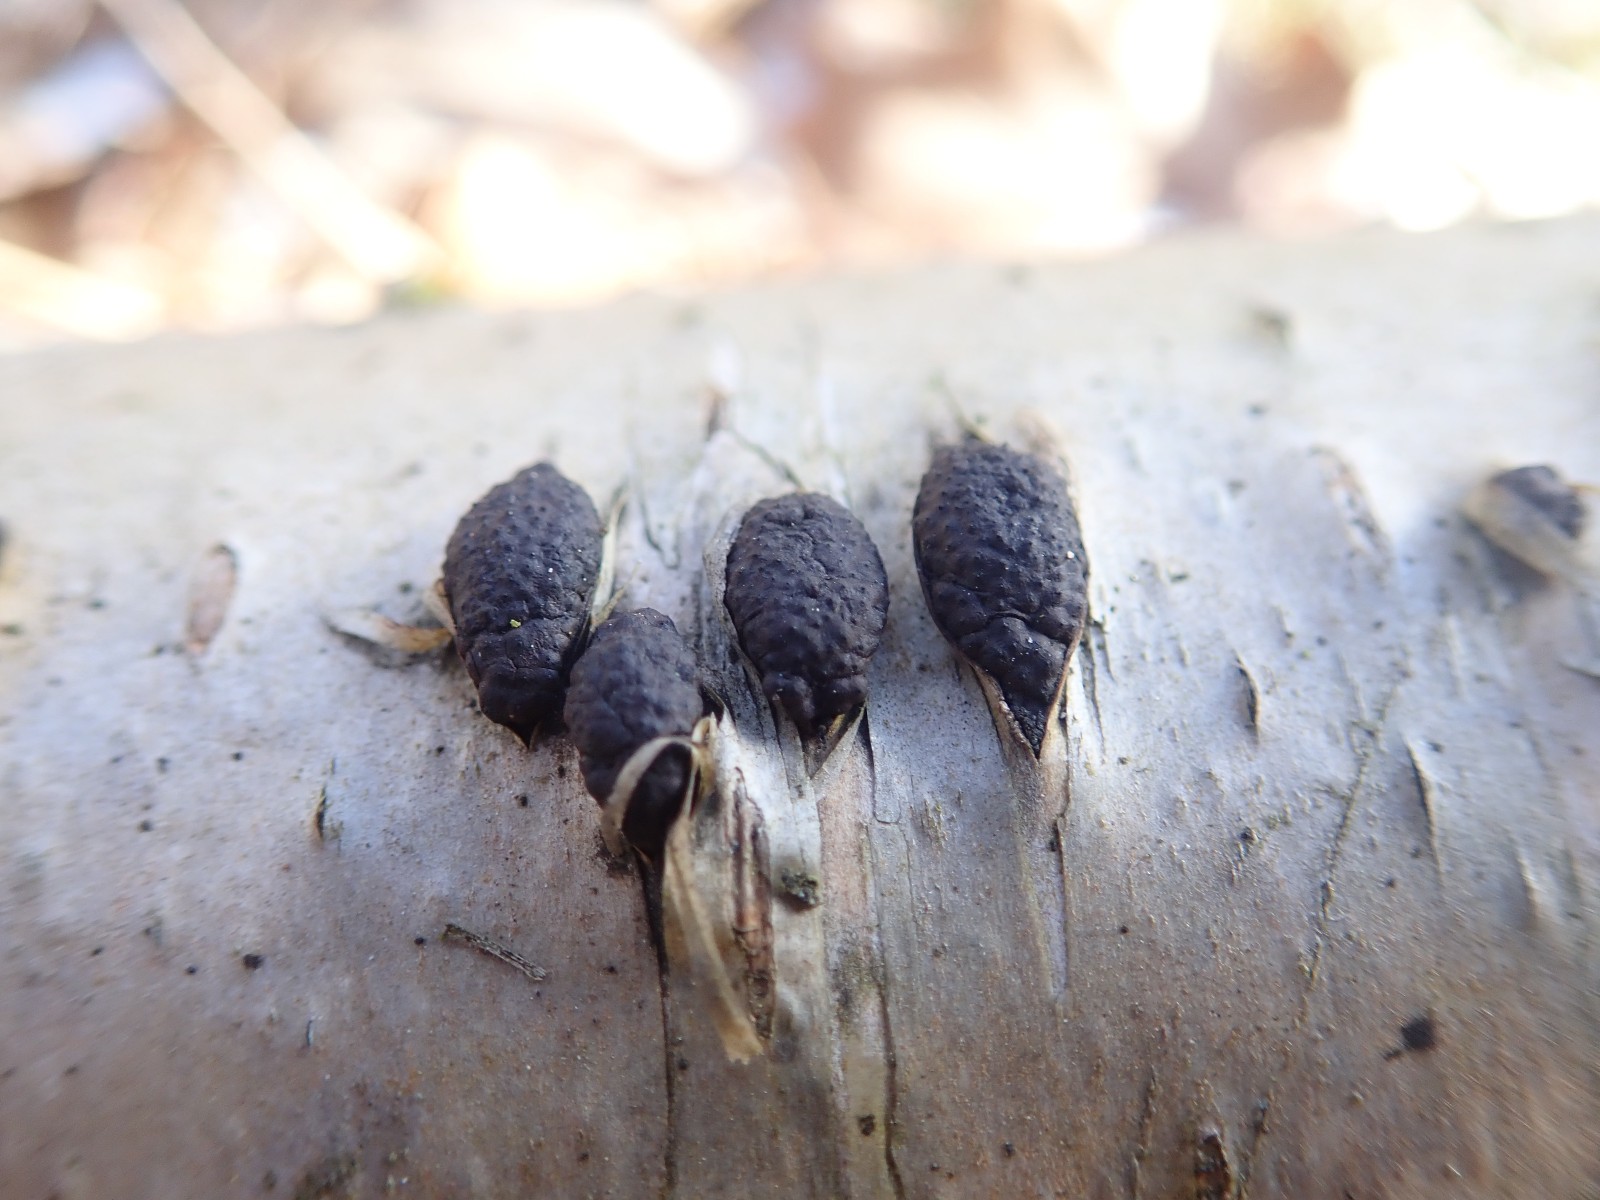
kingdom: Fungi
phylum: Ascomycota
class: Sordariomycetes
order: Xylariales
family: Hypoxylaceae
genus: Jackrogersella
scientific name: Jackrogersella multiformis
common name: foranderlig kulbær
